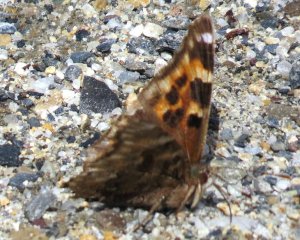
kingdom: Animalia
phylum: Arthropoda
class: Insecta
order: Lepidoptera
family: Nymphalidae
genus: Polygonia
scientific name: Polygonia vaualbum
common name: Compton Tortoiseshell
